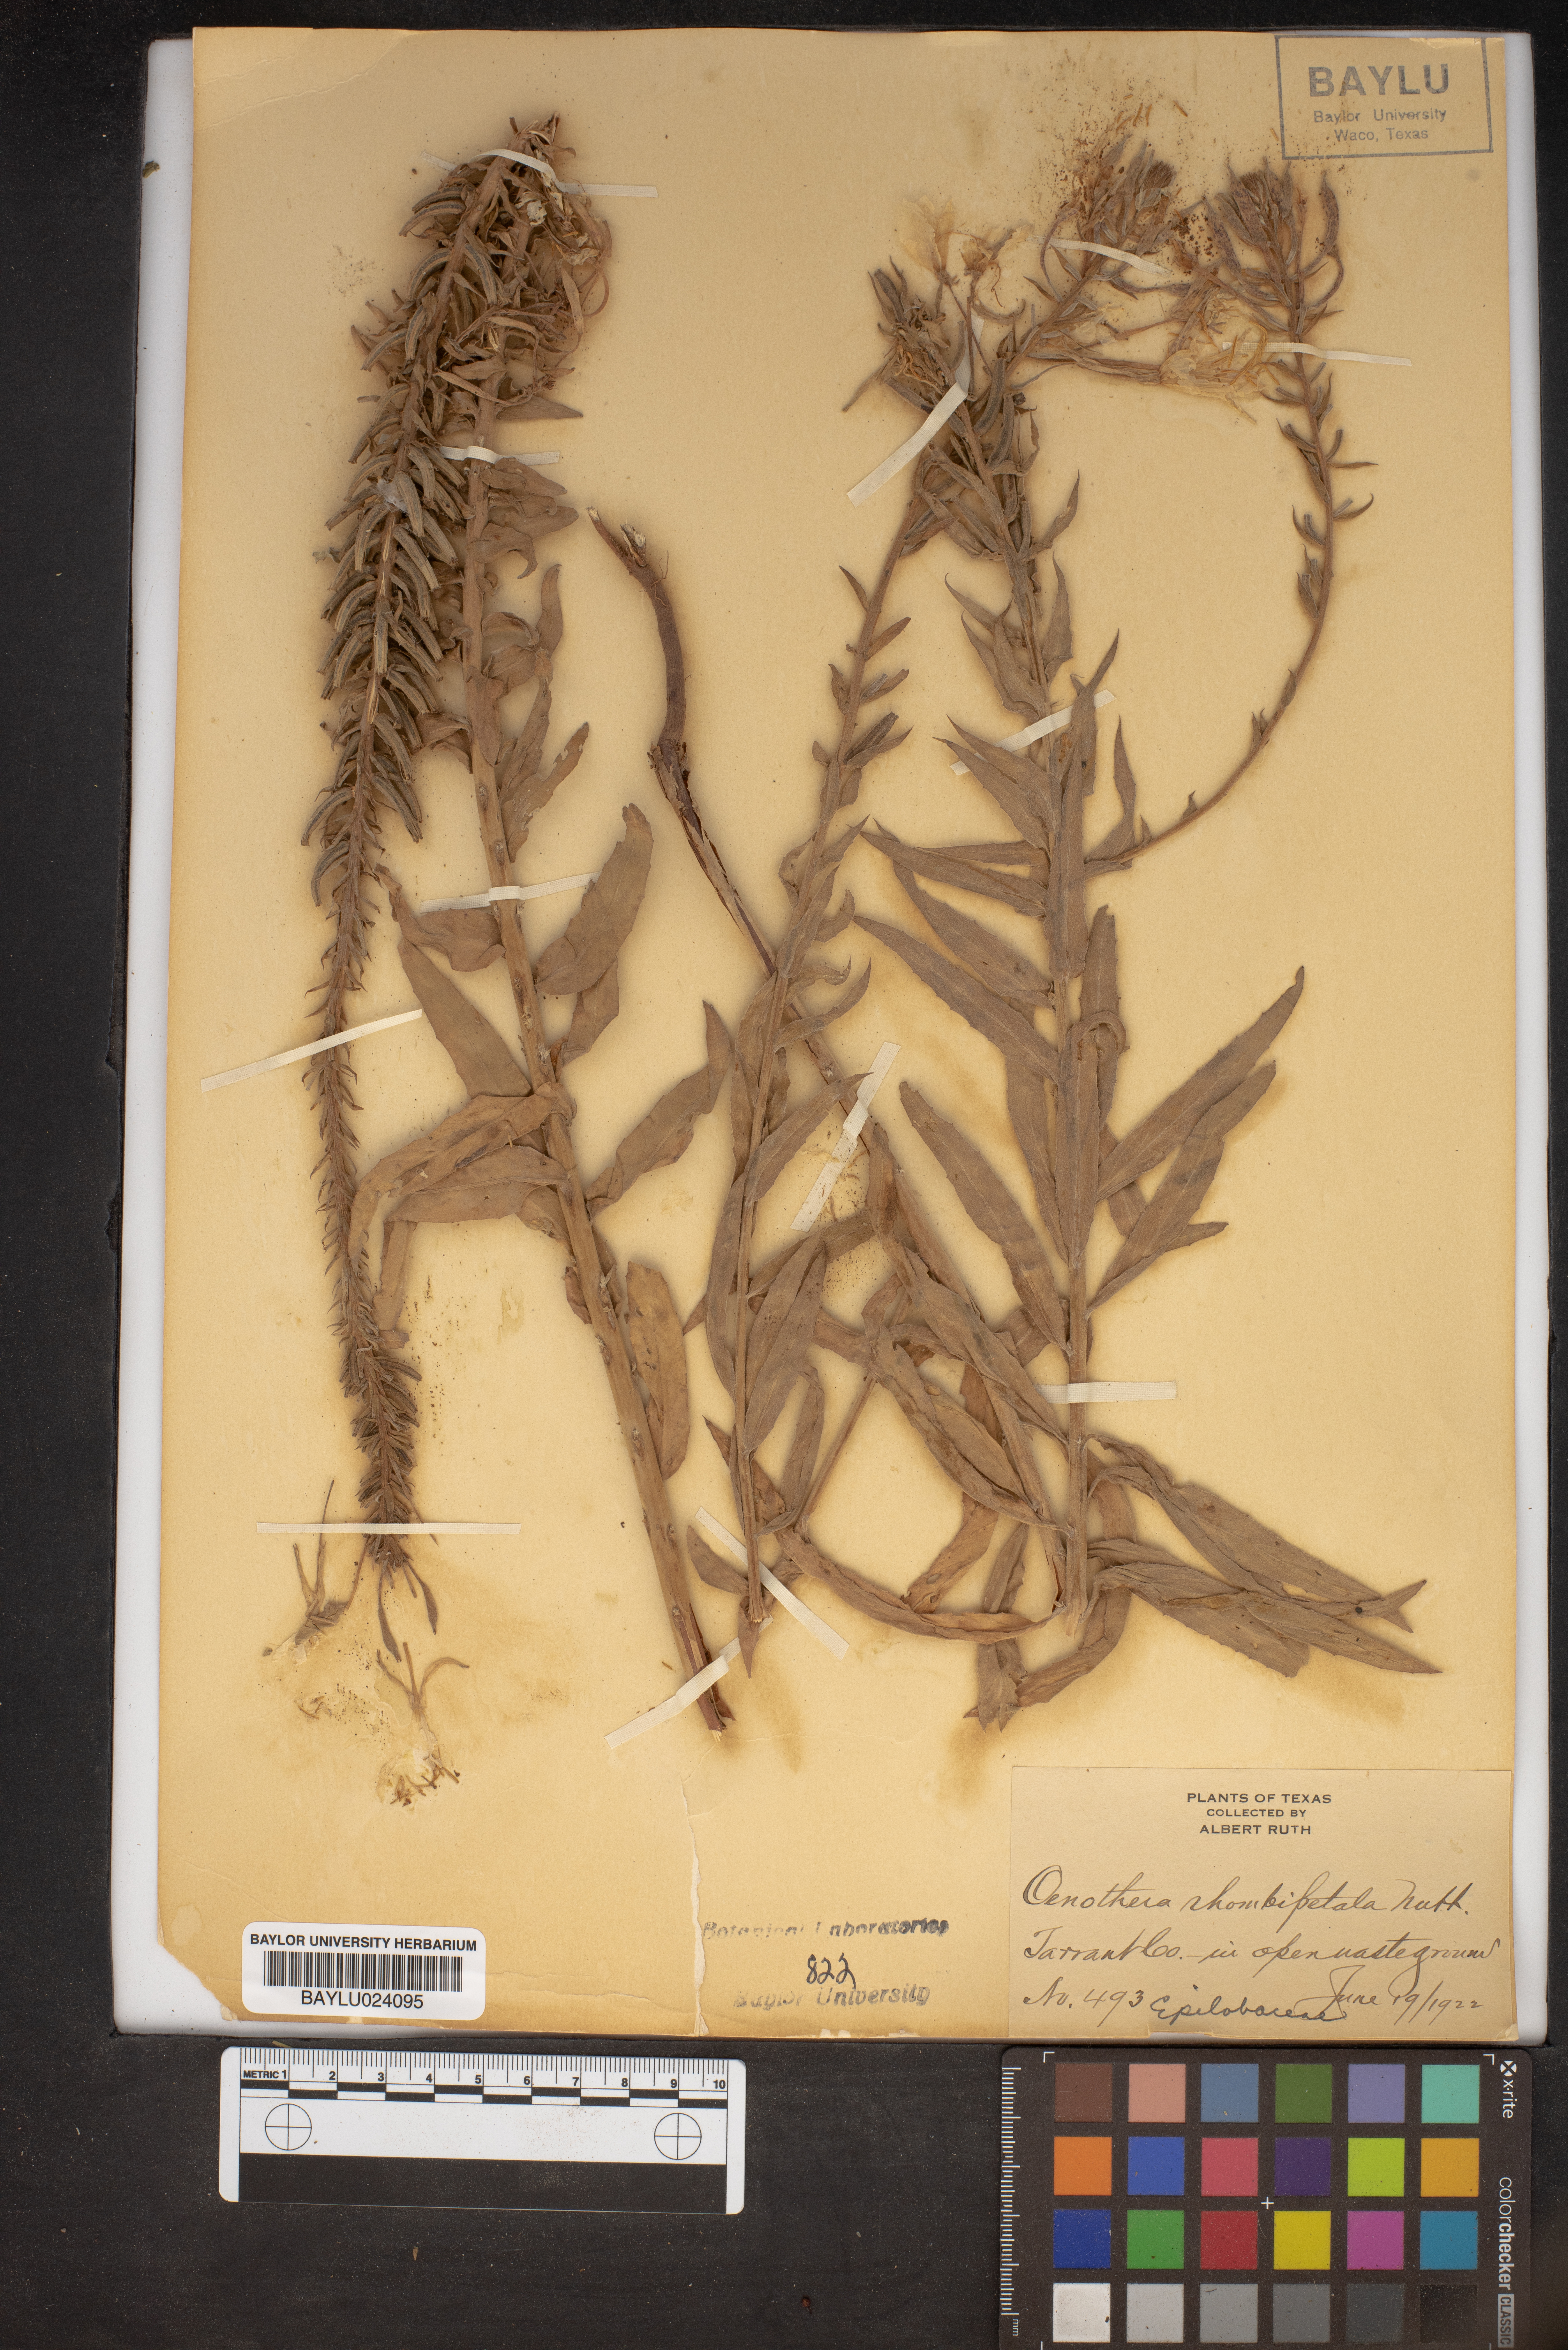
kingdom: Plantae
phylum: Tracheophyta
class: Magnoliopsida
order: Myrtales
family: Onagraceae
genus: Oenothera
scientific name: Oenothera rhombipetala
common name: Four-points evening-primrose
